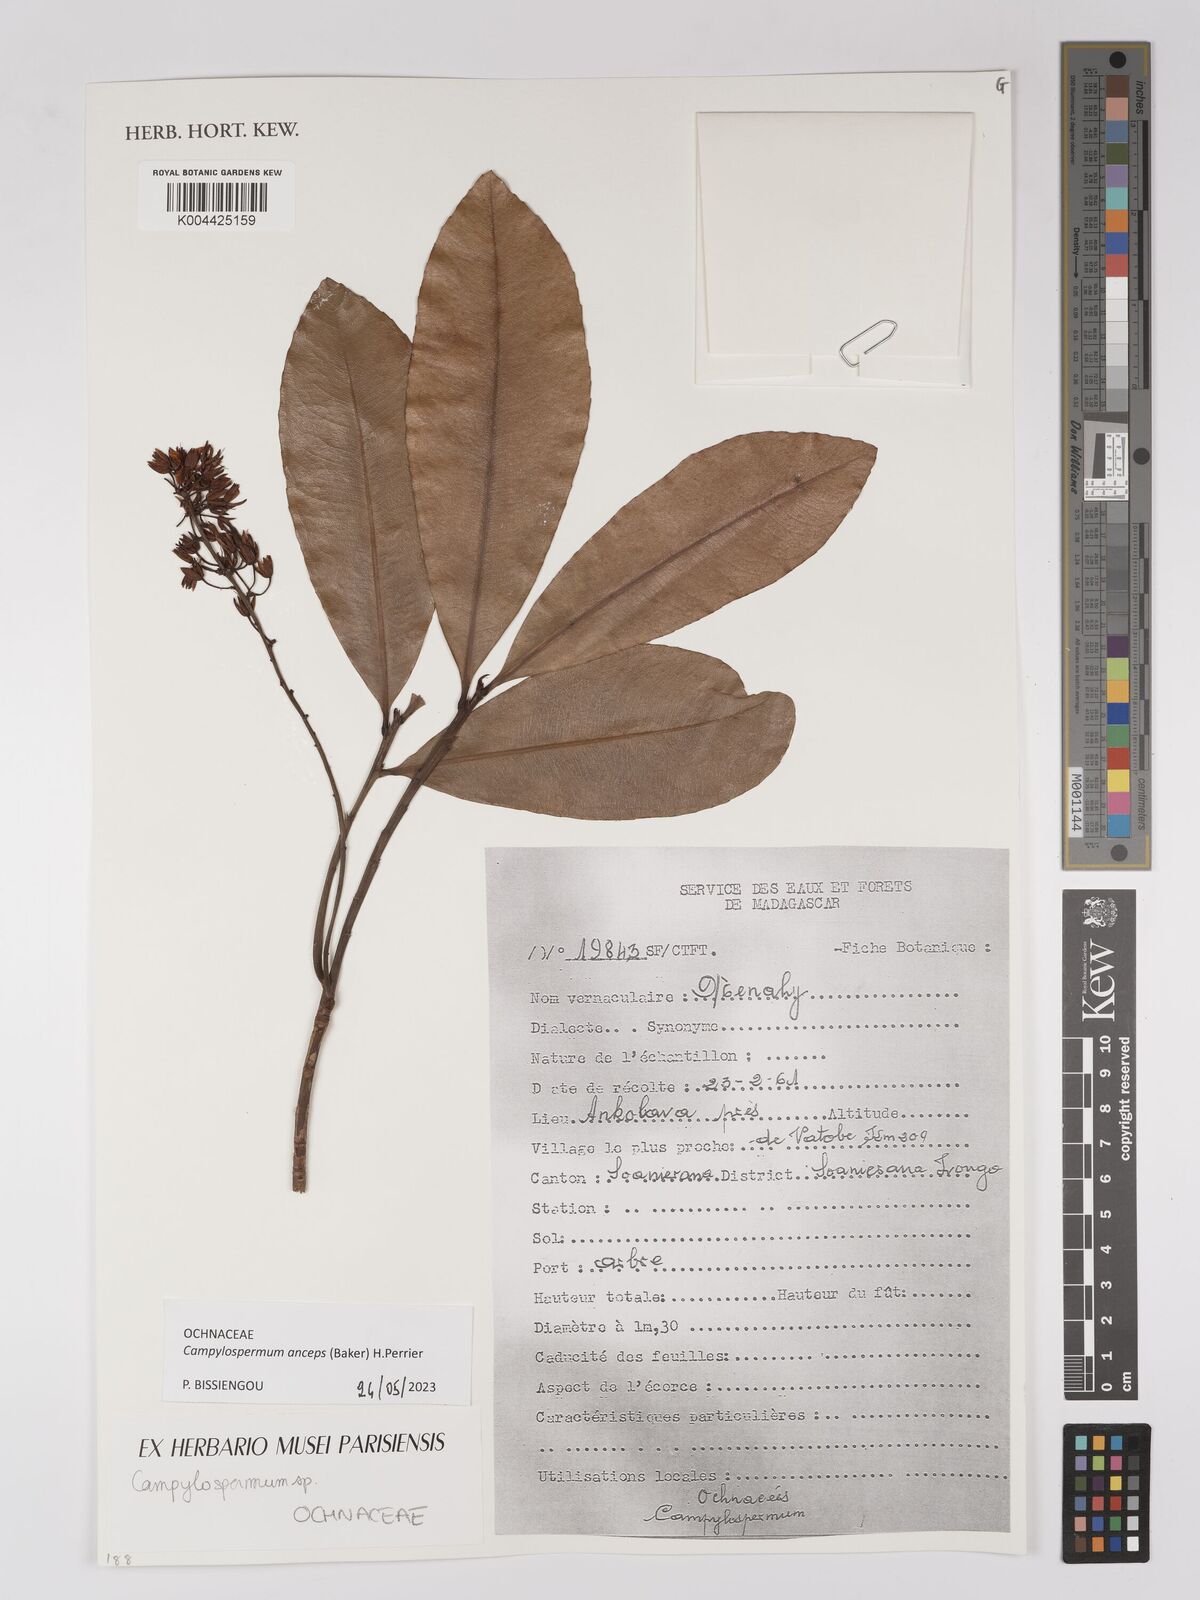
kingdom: Plantae
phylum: Tracheophyta
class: Magnoliopsida
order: Malpighiales
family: Ochnaceae
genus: Campylospermum
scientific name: Campylospermum
